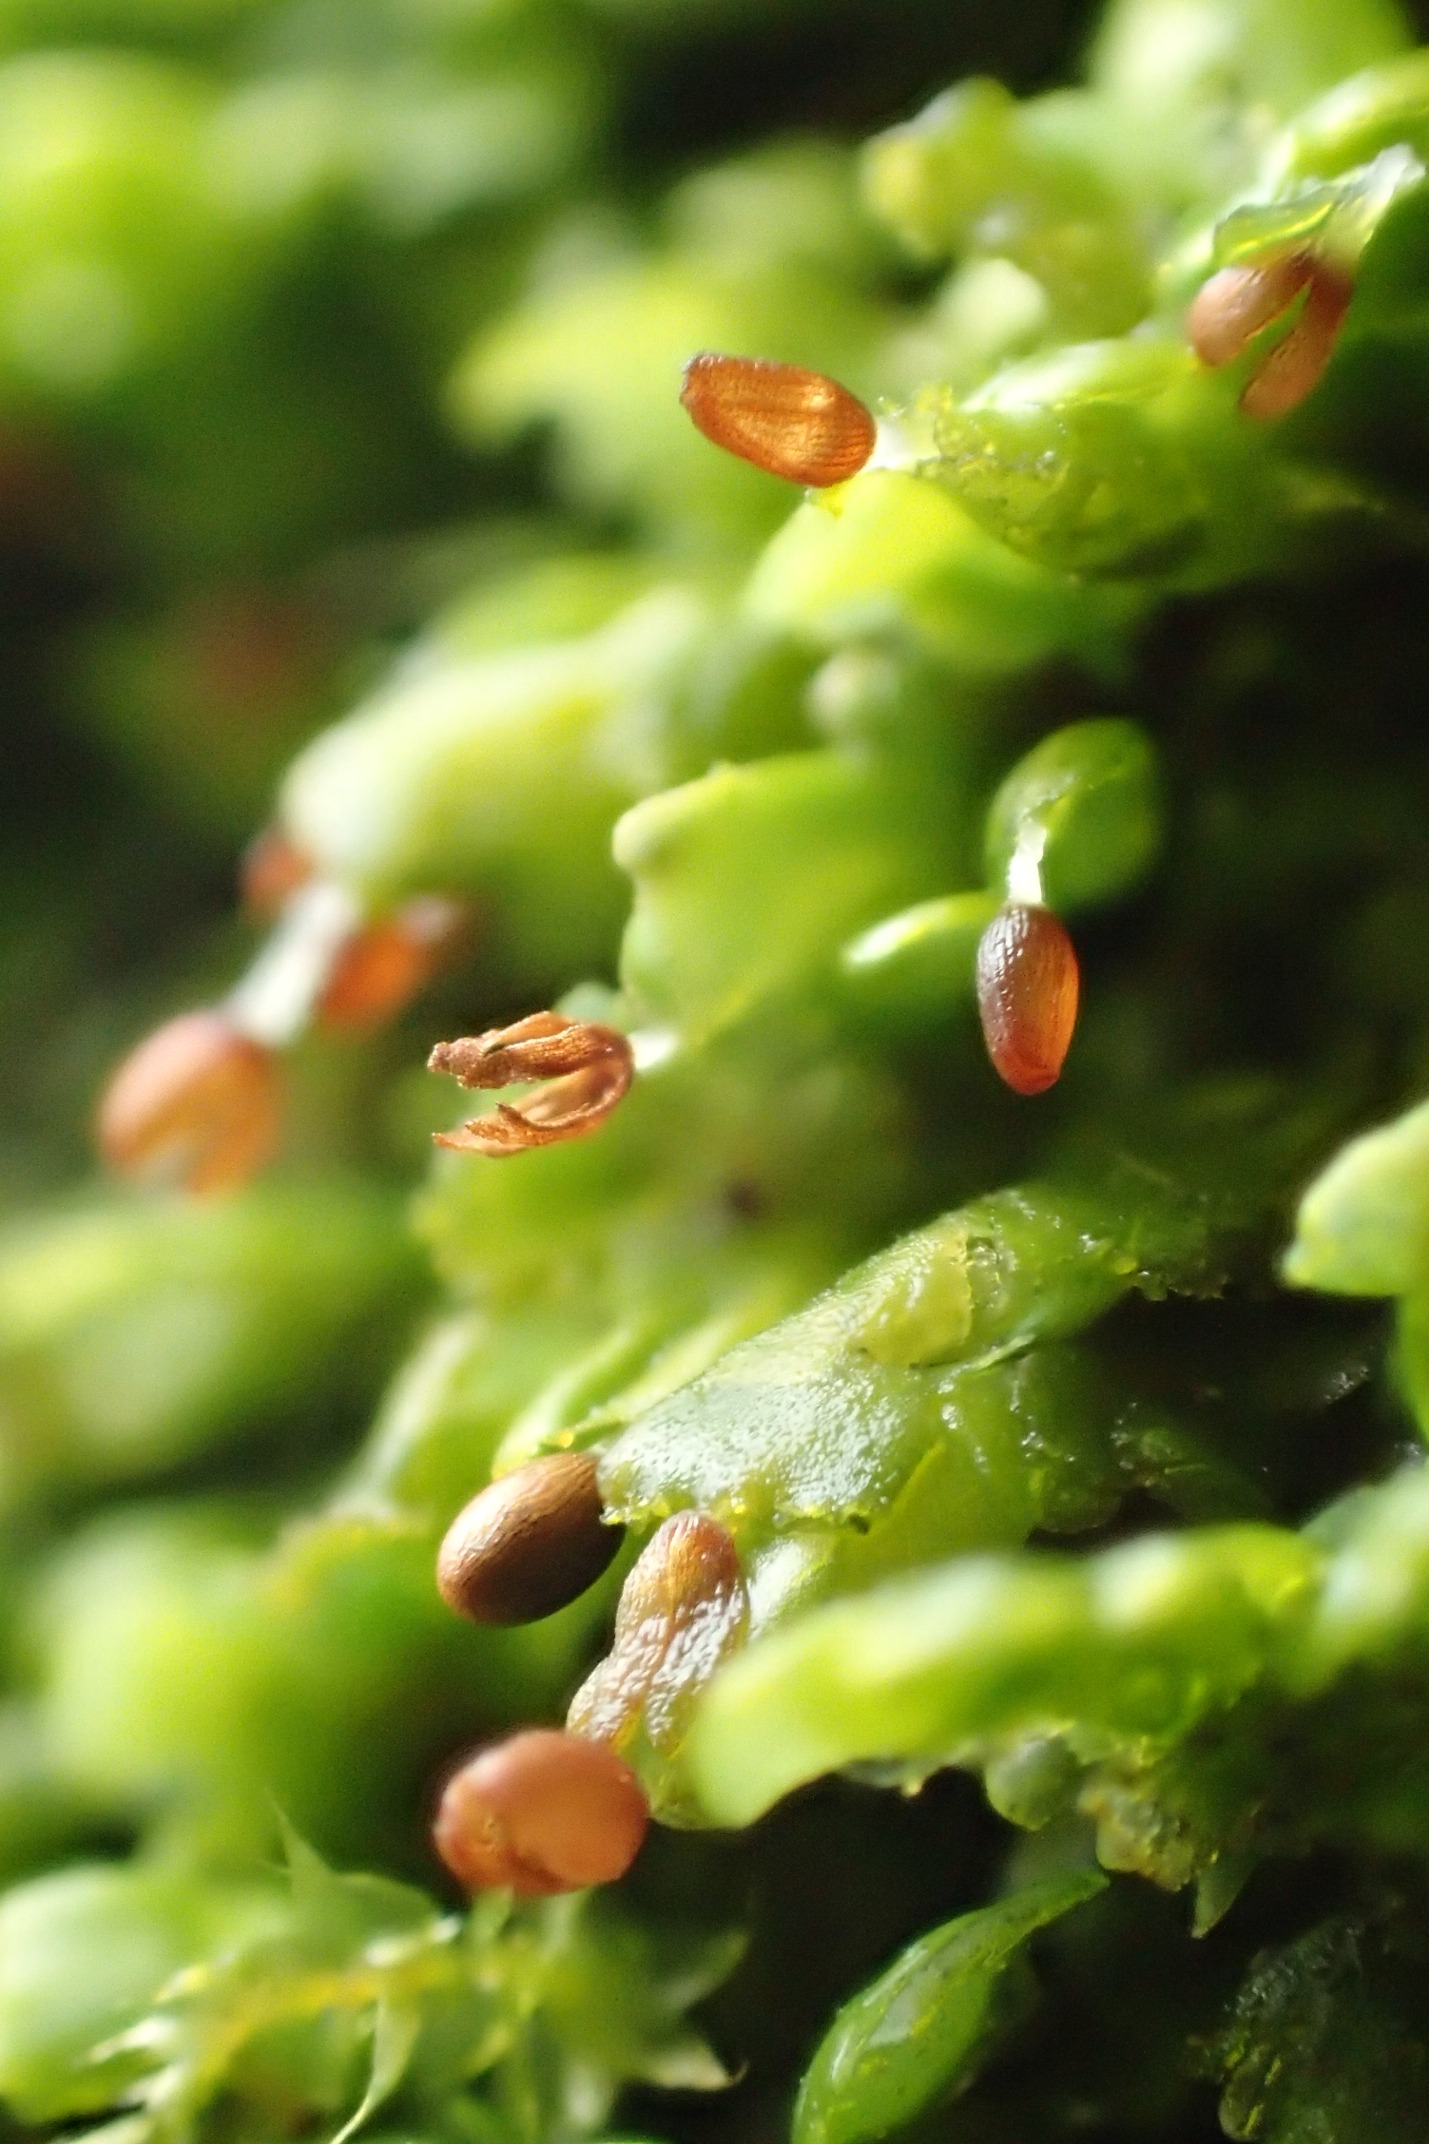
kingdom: Plantae
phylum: Marchantiophyta
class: Jungermanniopsida
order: Porellales
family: Radulaceae
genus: Radula
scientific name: Radula complanata
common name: Almindelig spartelmos
